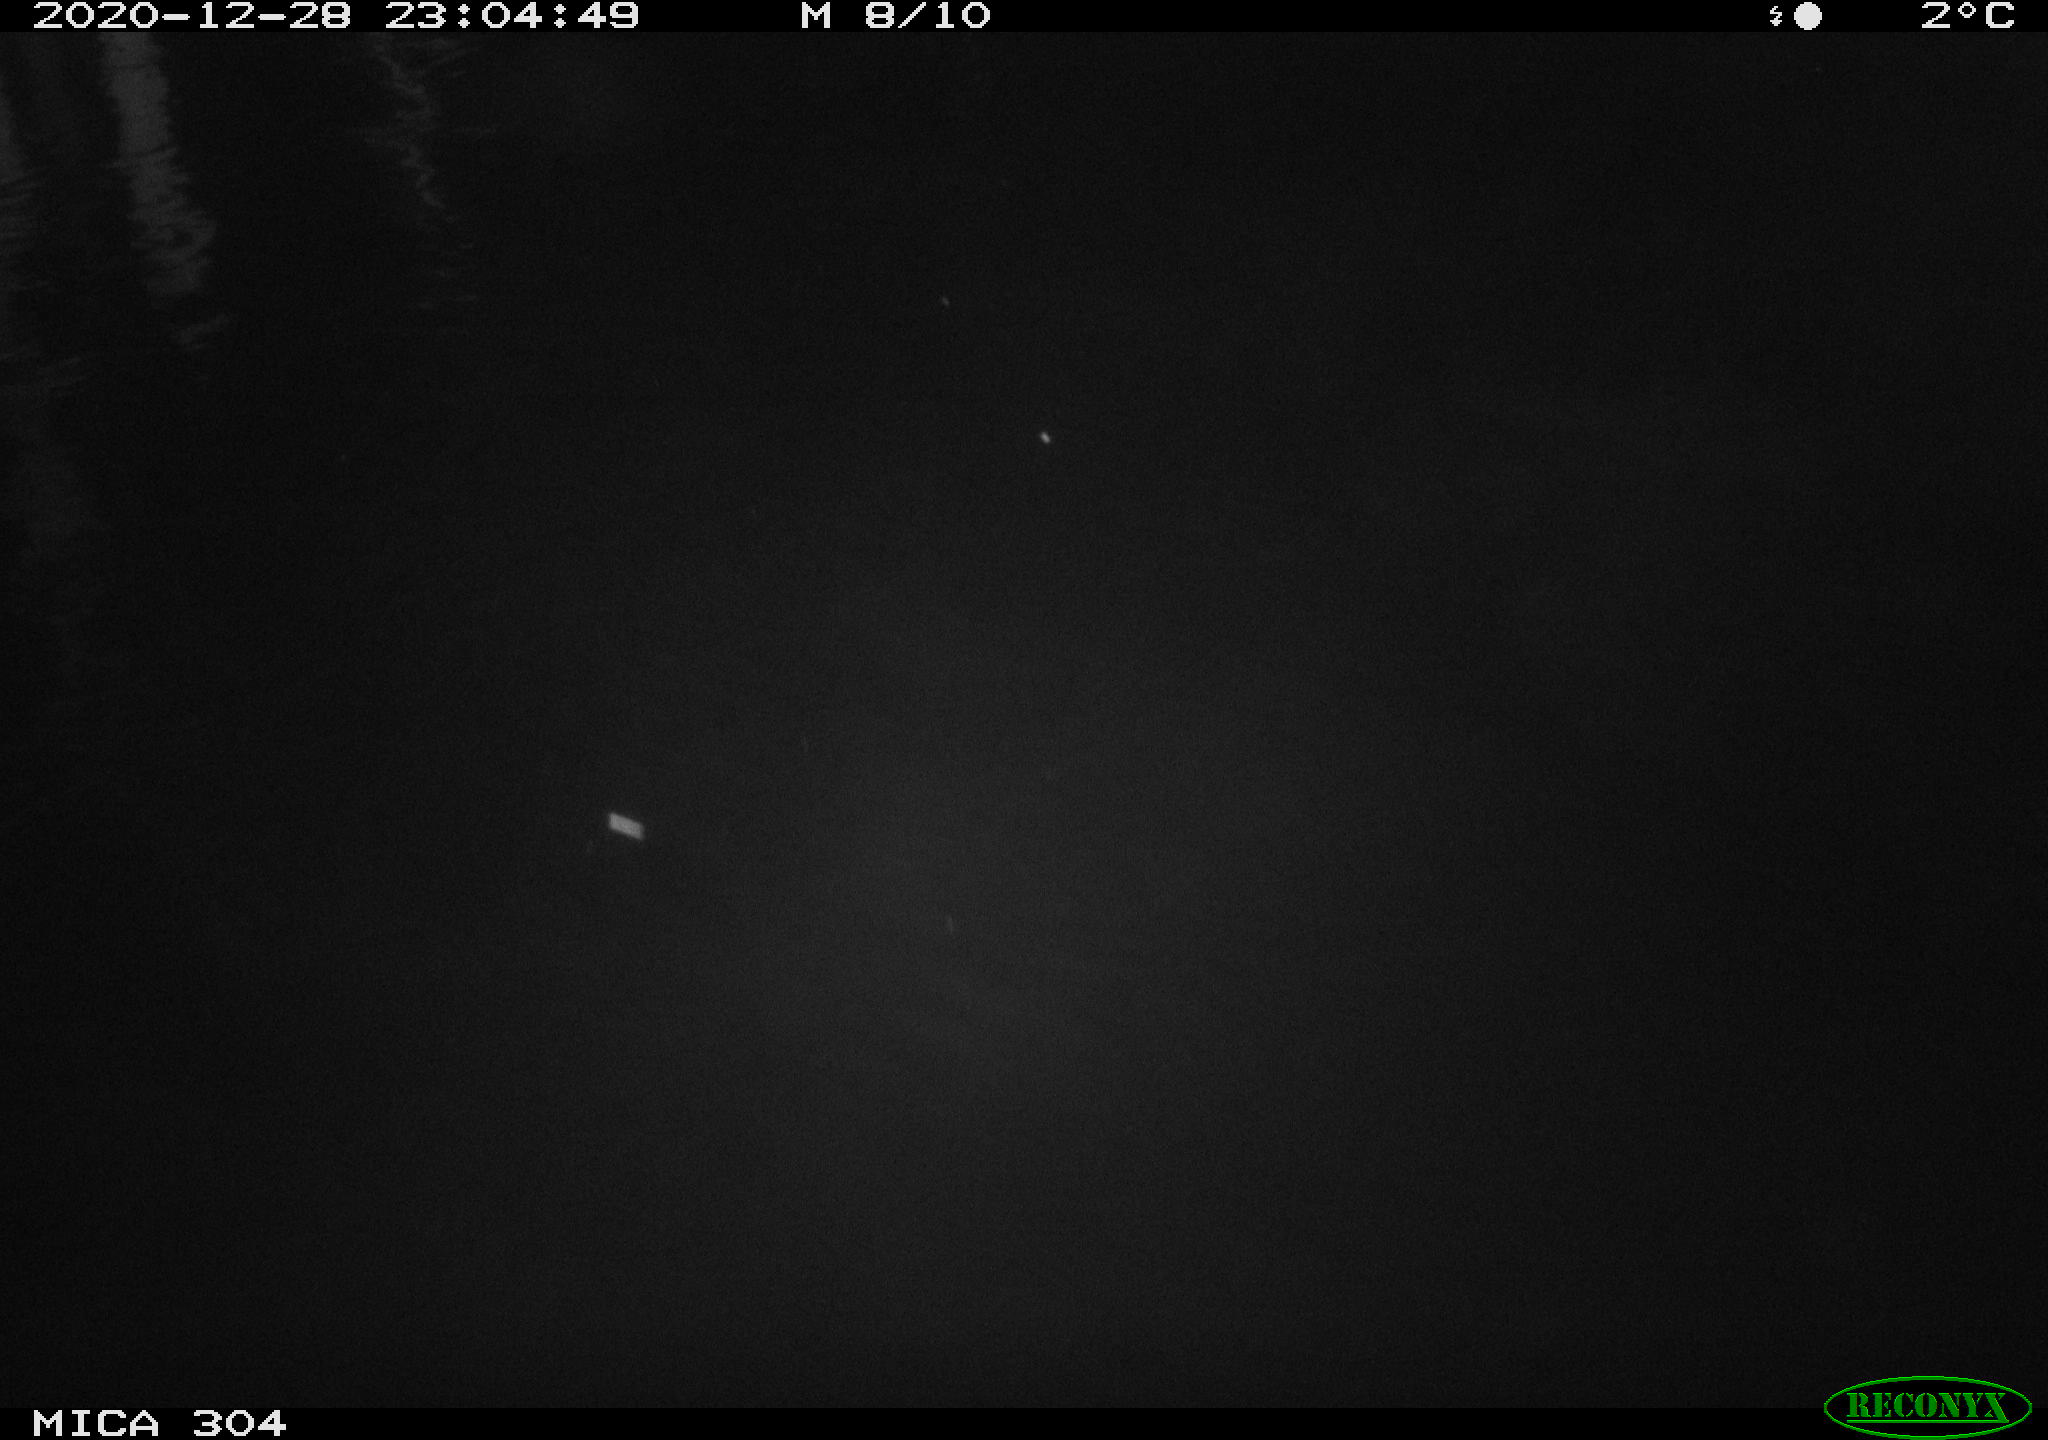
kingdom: Animalia
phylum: Chordata
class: Mammalia
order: Rodentia
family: Muridae
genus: Rattus
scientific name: Rattus norvegicus
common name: Brown rat
